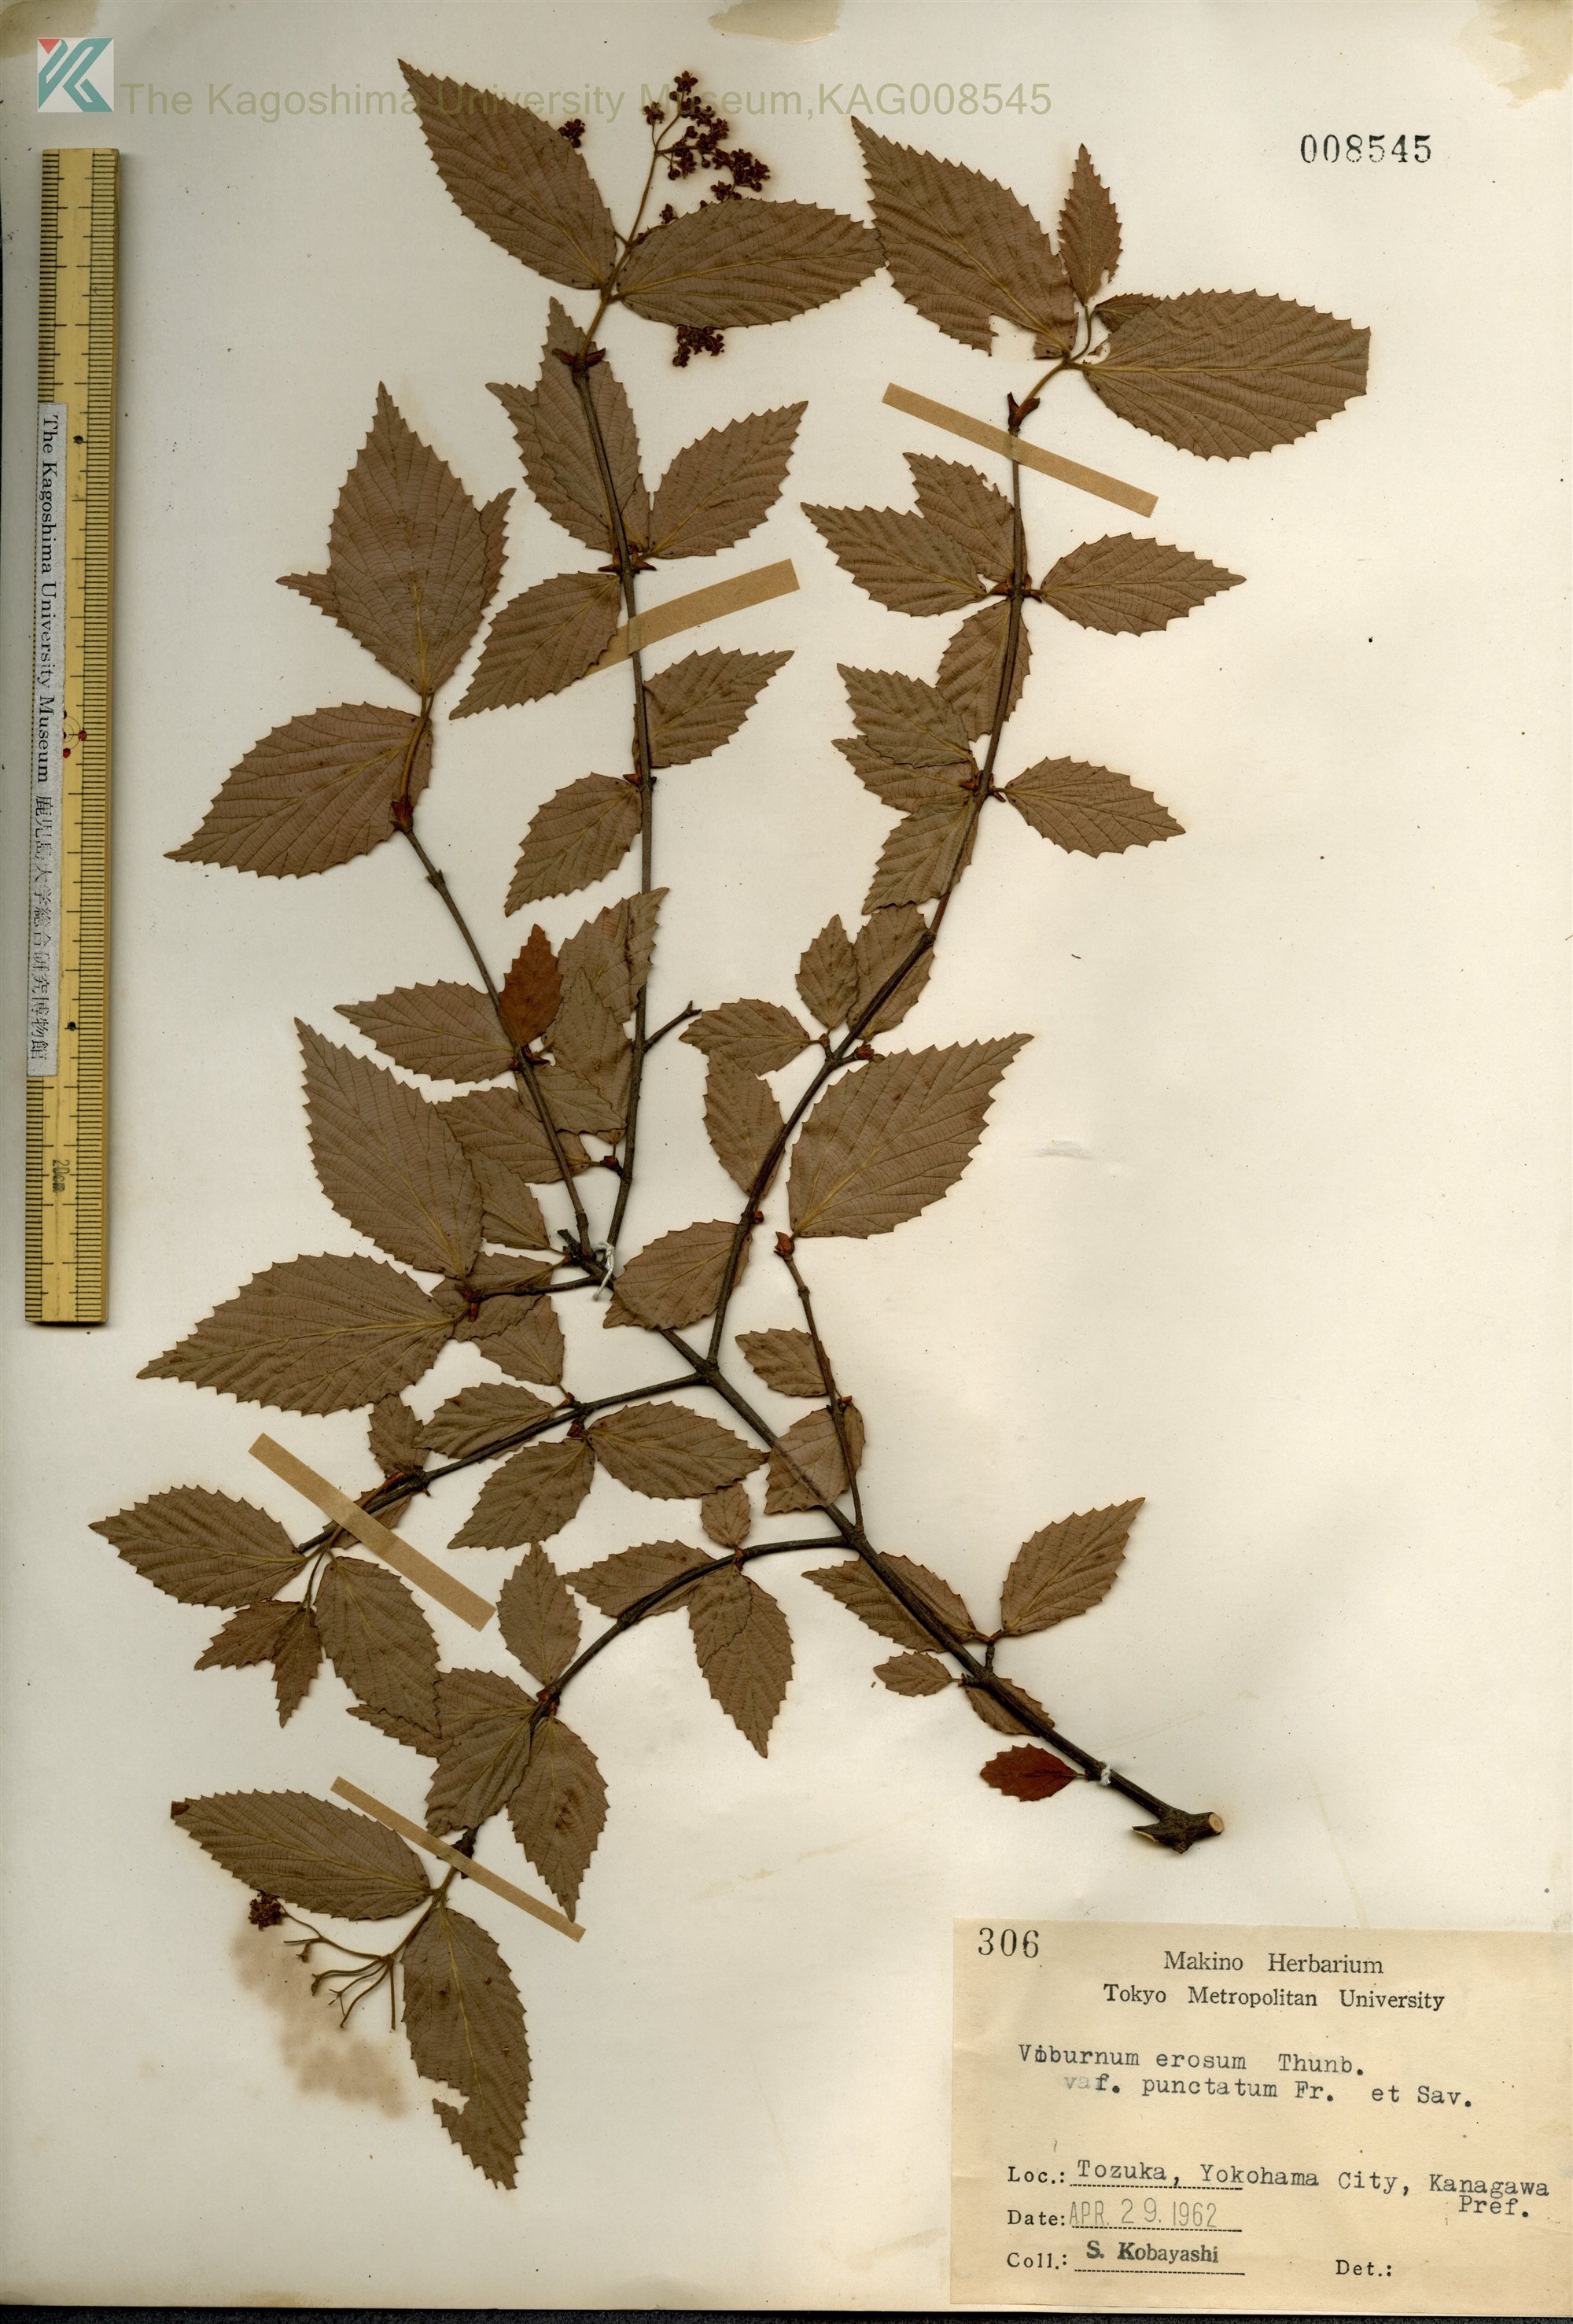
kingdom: Plantae
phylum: Tracheophyta
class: Magnoliopsida
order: Dipsacales
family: Viburnaceae
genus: Viburnum
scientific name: Viburnum erosum
